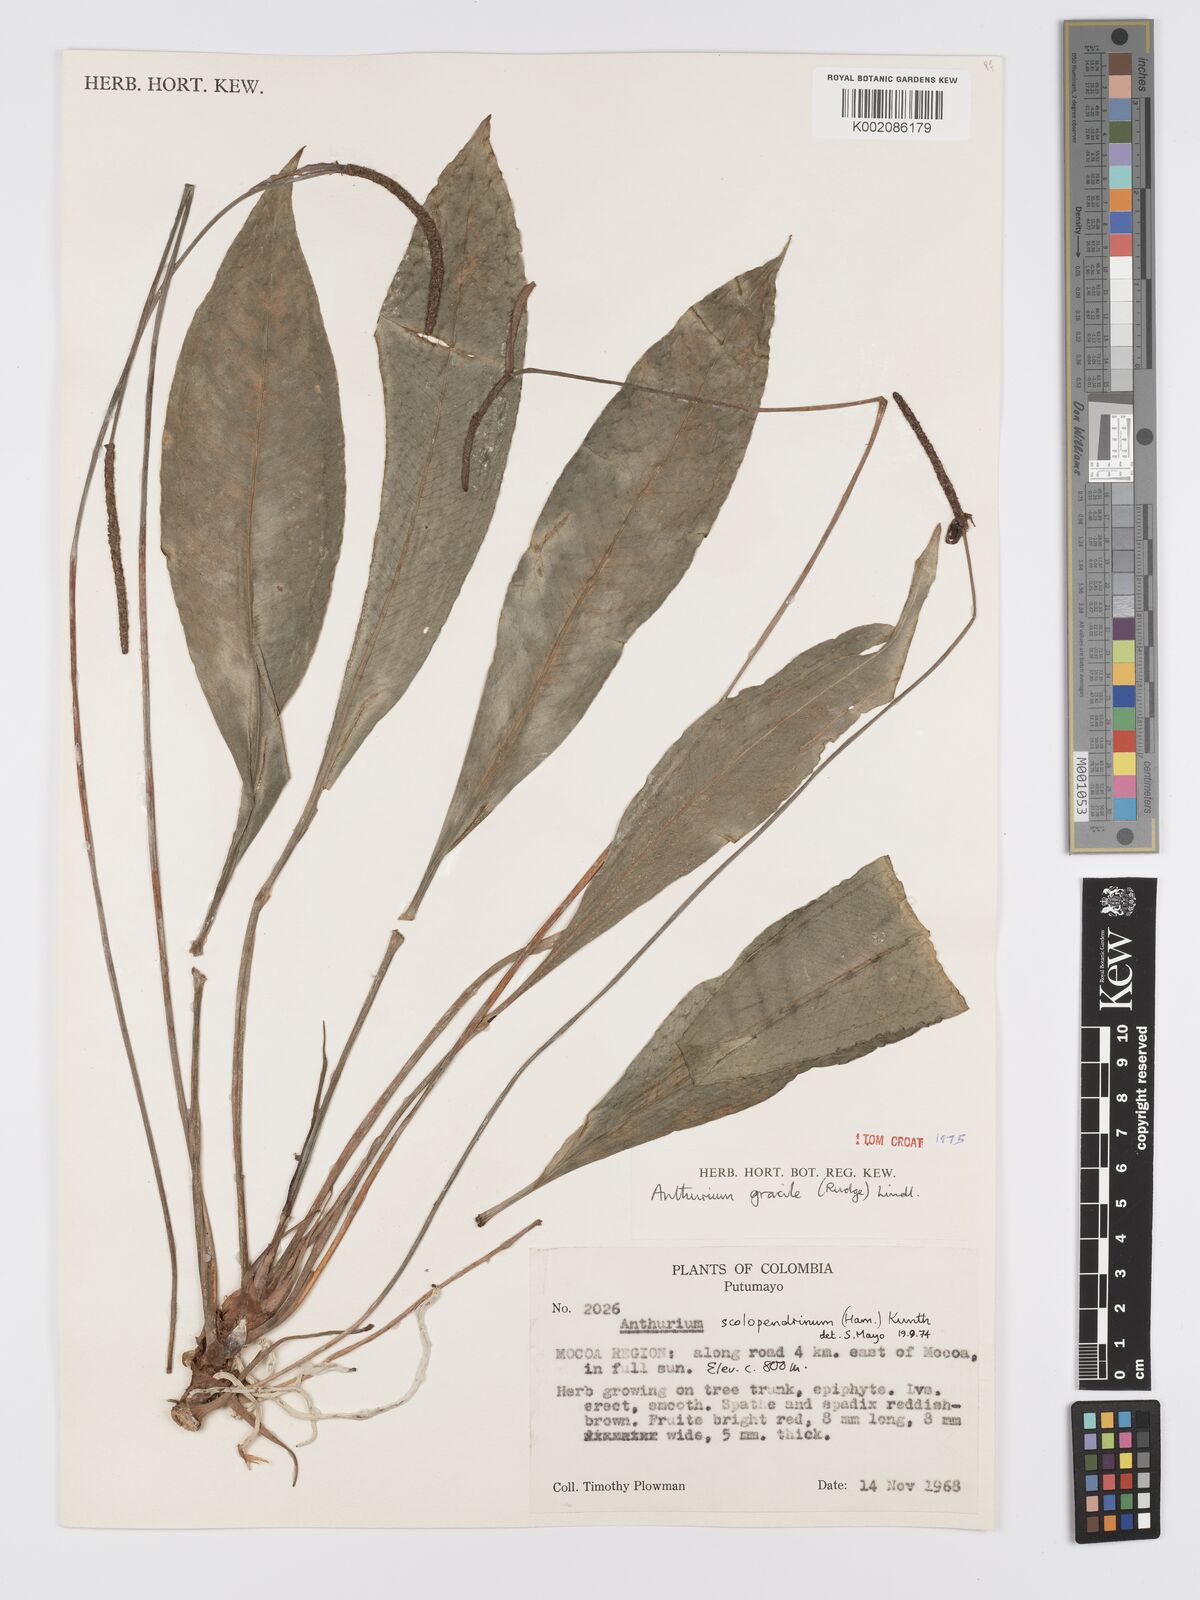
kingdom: Plantae
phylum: Tracheophyta
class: Liliopsida
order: Alismatales
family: Araceae
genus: Anthurium
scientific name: Anthurium gracile
